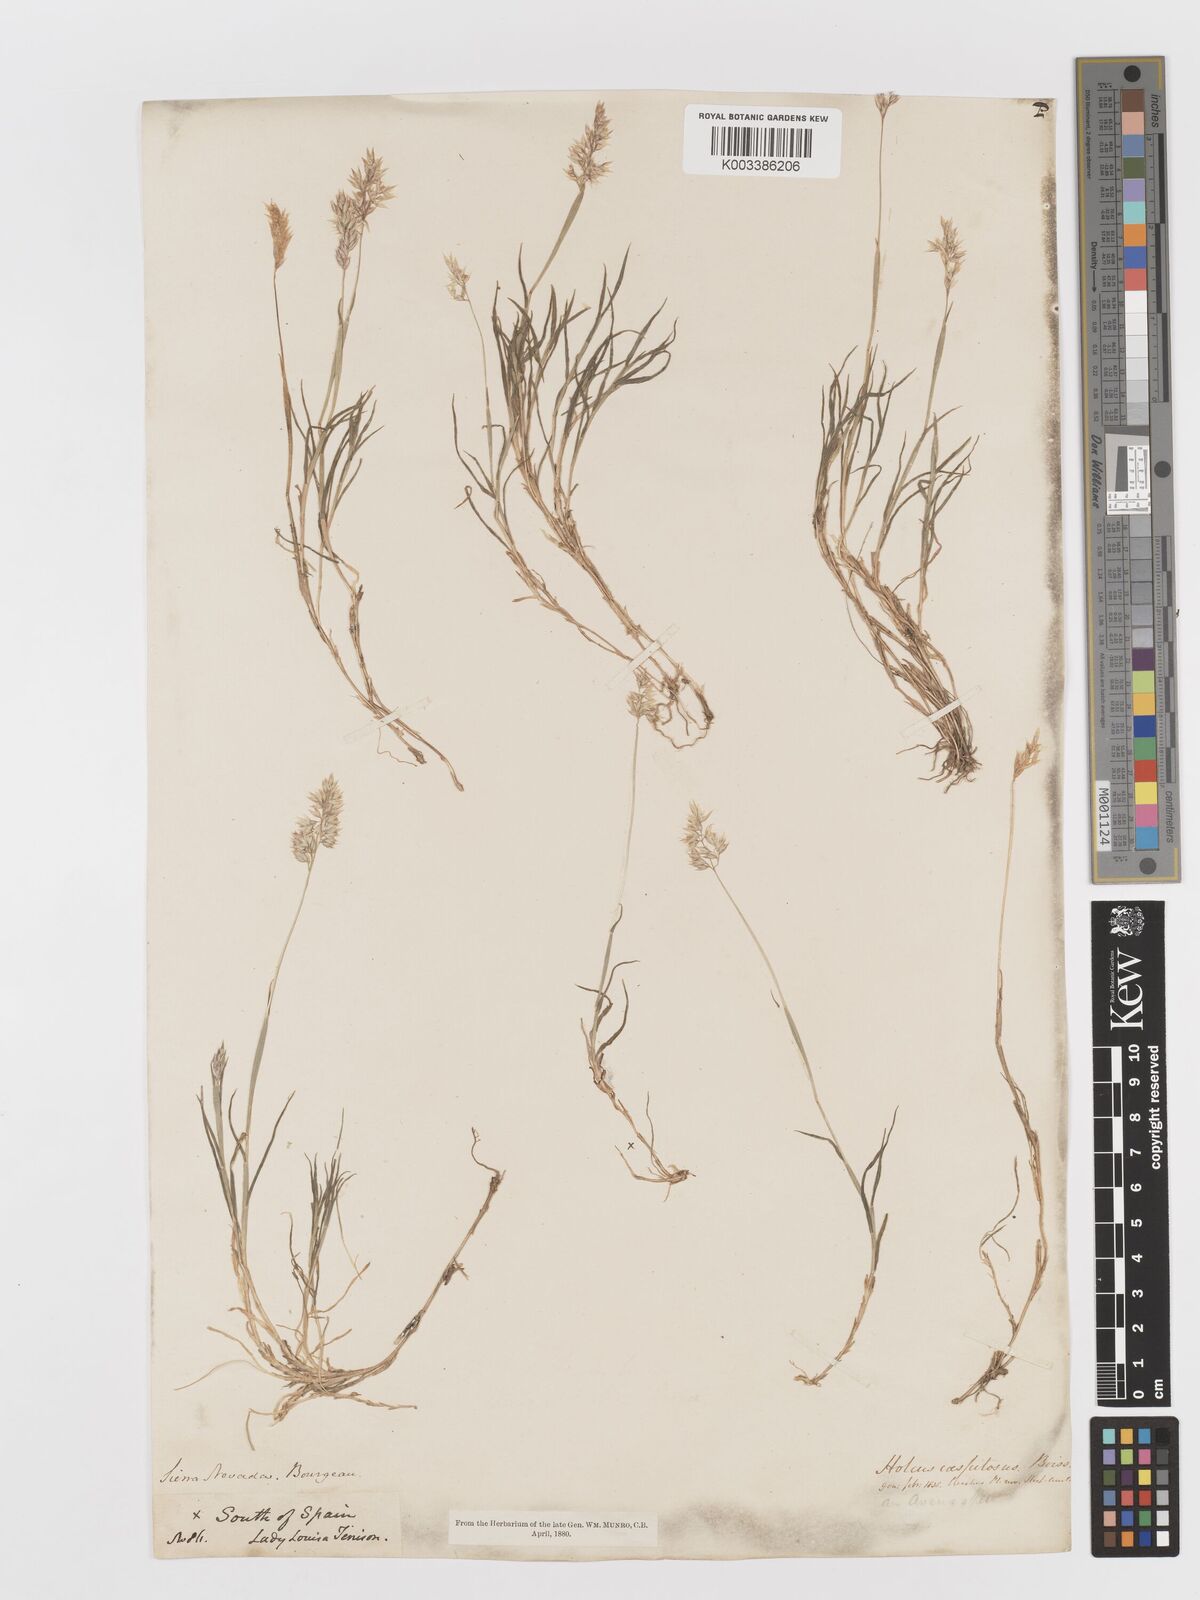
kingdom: Plantae
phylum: Tracheophyta
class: Liliopsida
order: Poales
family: Poaceae
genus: Holcus
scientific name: Holcus caespitosus
